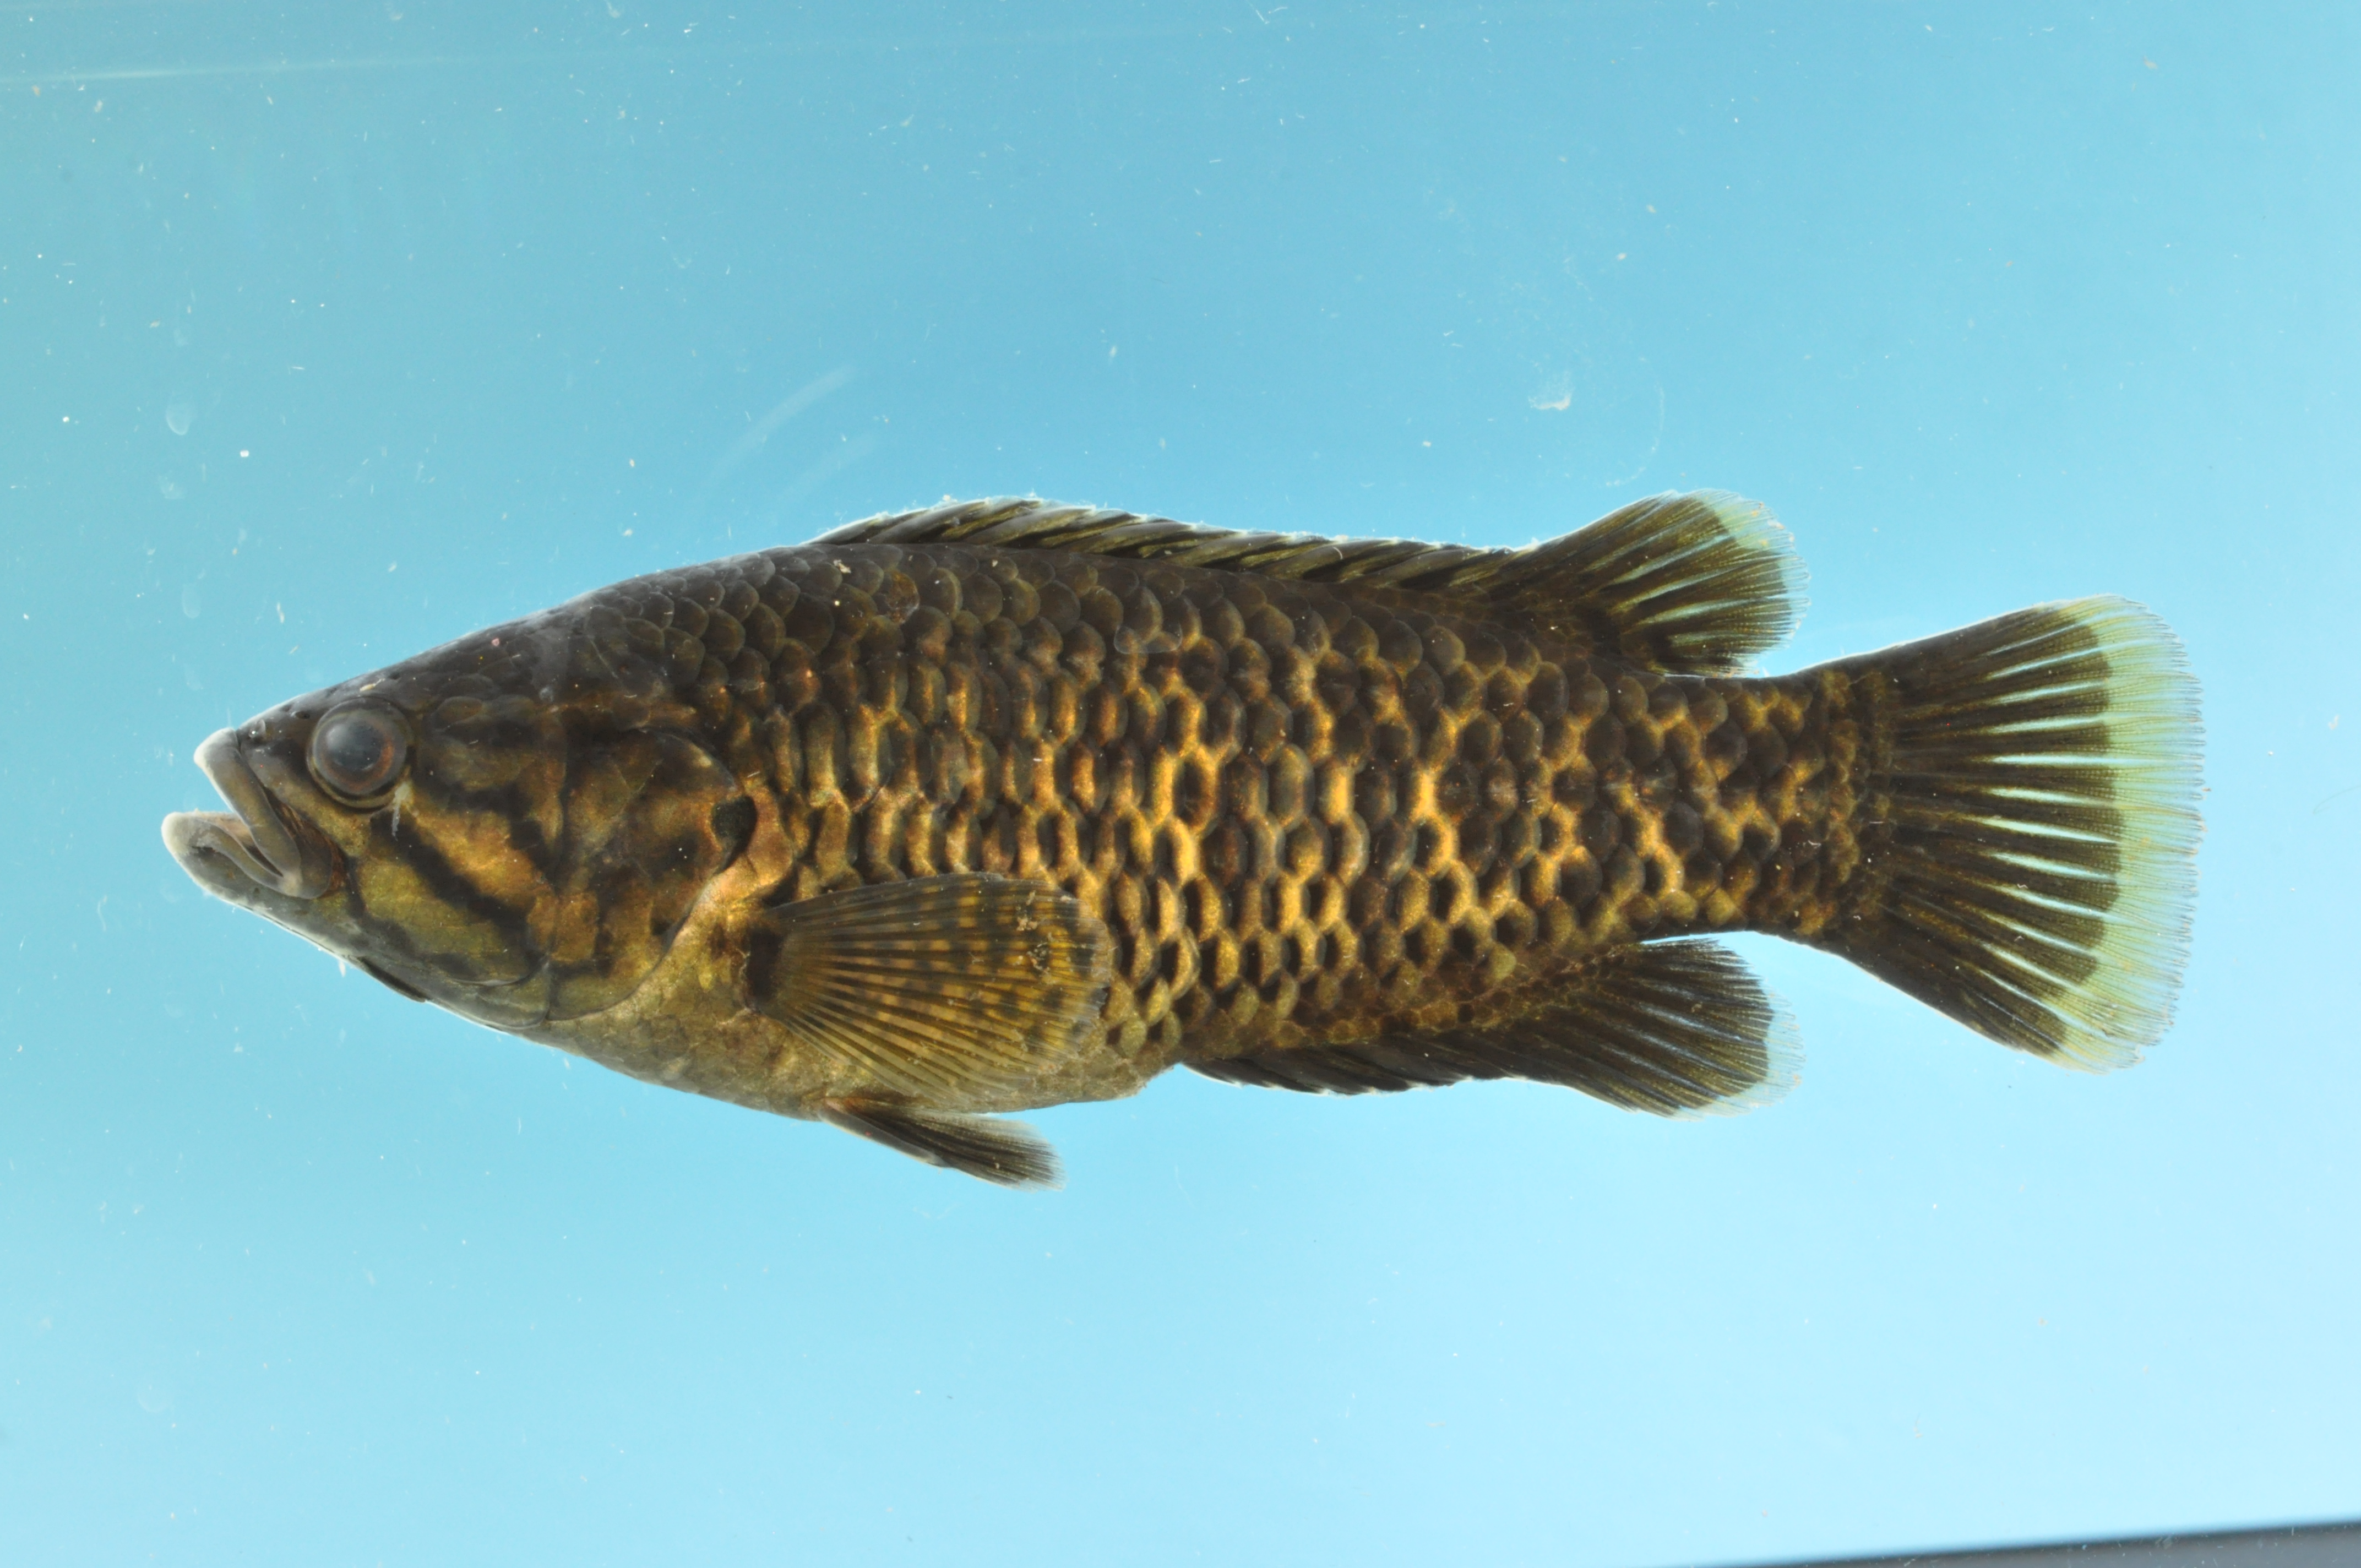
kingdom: Animalia
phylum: Chordata
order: Perciformes
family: Anabantidae
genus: Sandelia
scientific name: Sandelia capensis
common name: Cape kurper
